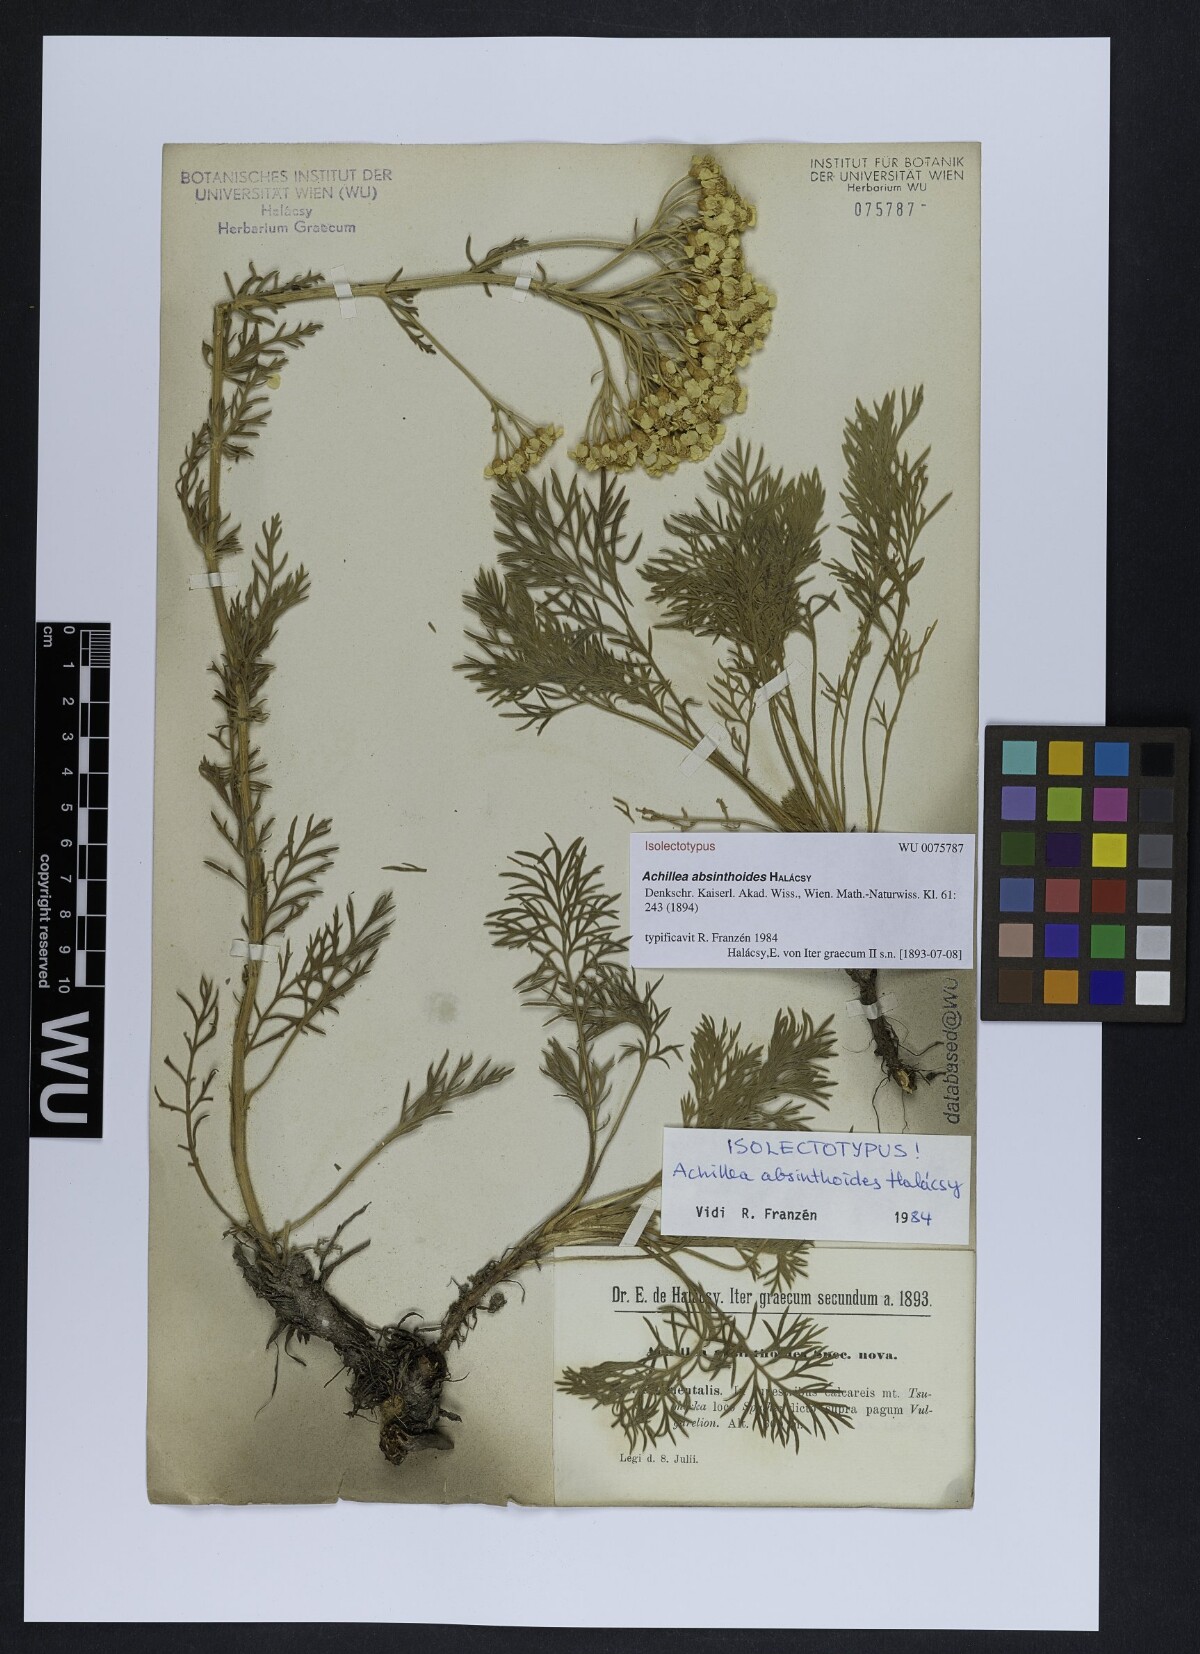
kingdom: Plantae
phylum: Tracheophyta
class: Magnoliopsida
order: Asterales
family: Asteraceae
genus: Achillea
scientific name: Achillea absinthoides
